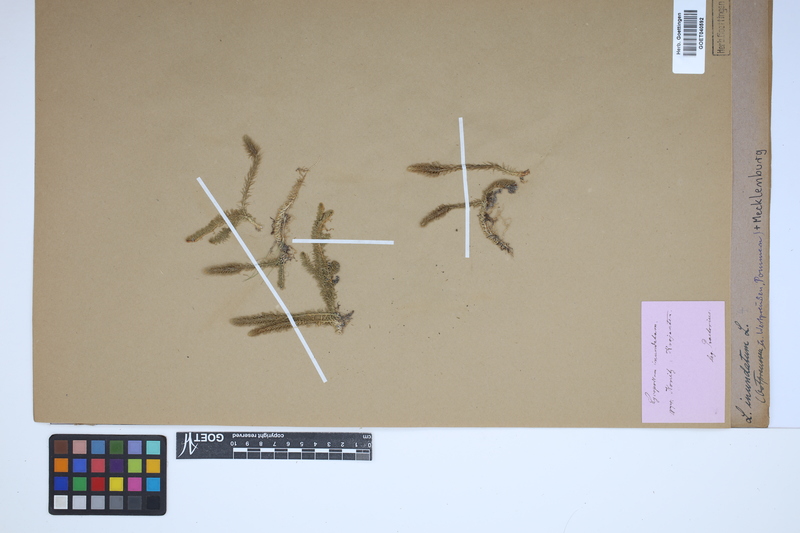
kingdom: Plantae
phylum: Tracheophyta
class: Lycopodiopsida
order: Lycopodiales
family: Lycopodiaceae
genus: Lycopodiella
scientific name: Lycopodiella inundata
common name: Marsh clubmoss
